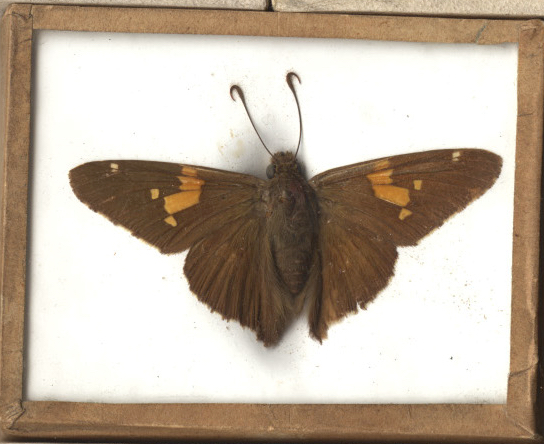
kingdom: Animalia
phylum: Arthropoda
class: Insecta
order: Lepidoptera
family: Hesperiidae
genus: Epargyreus
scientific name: Epargyreus clarus
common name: Silver-spotted Skipper
